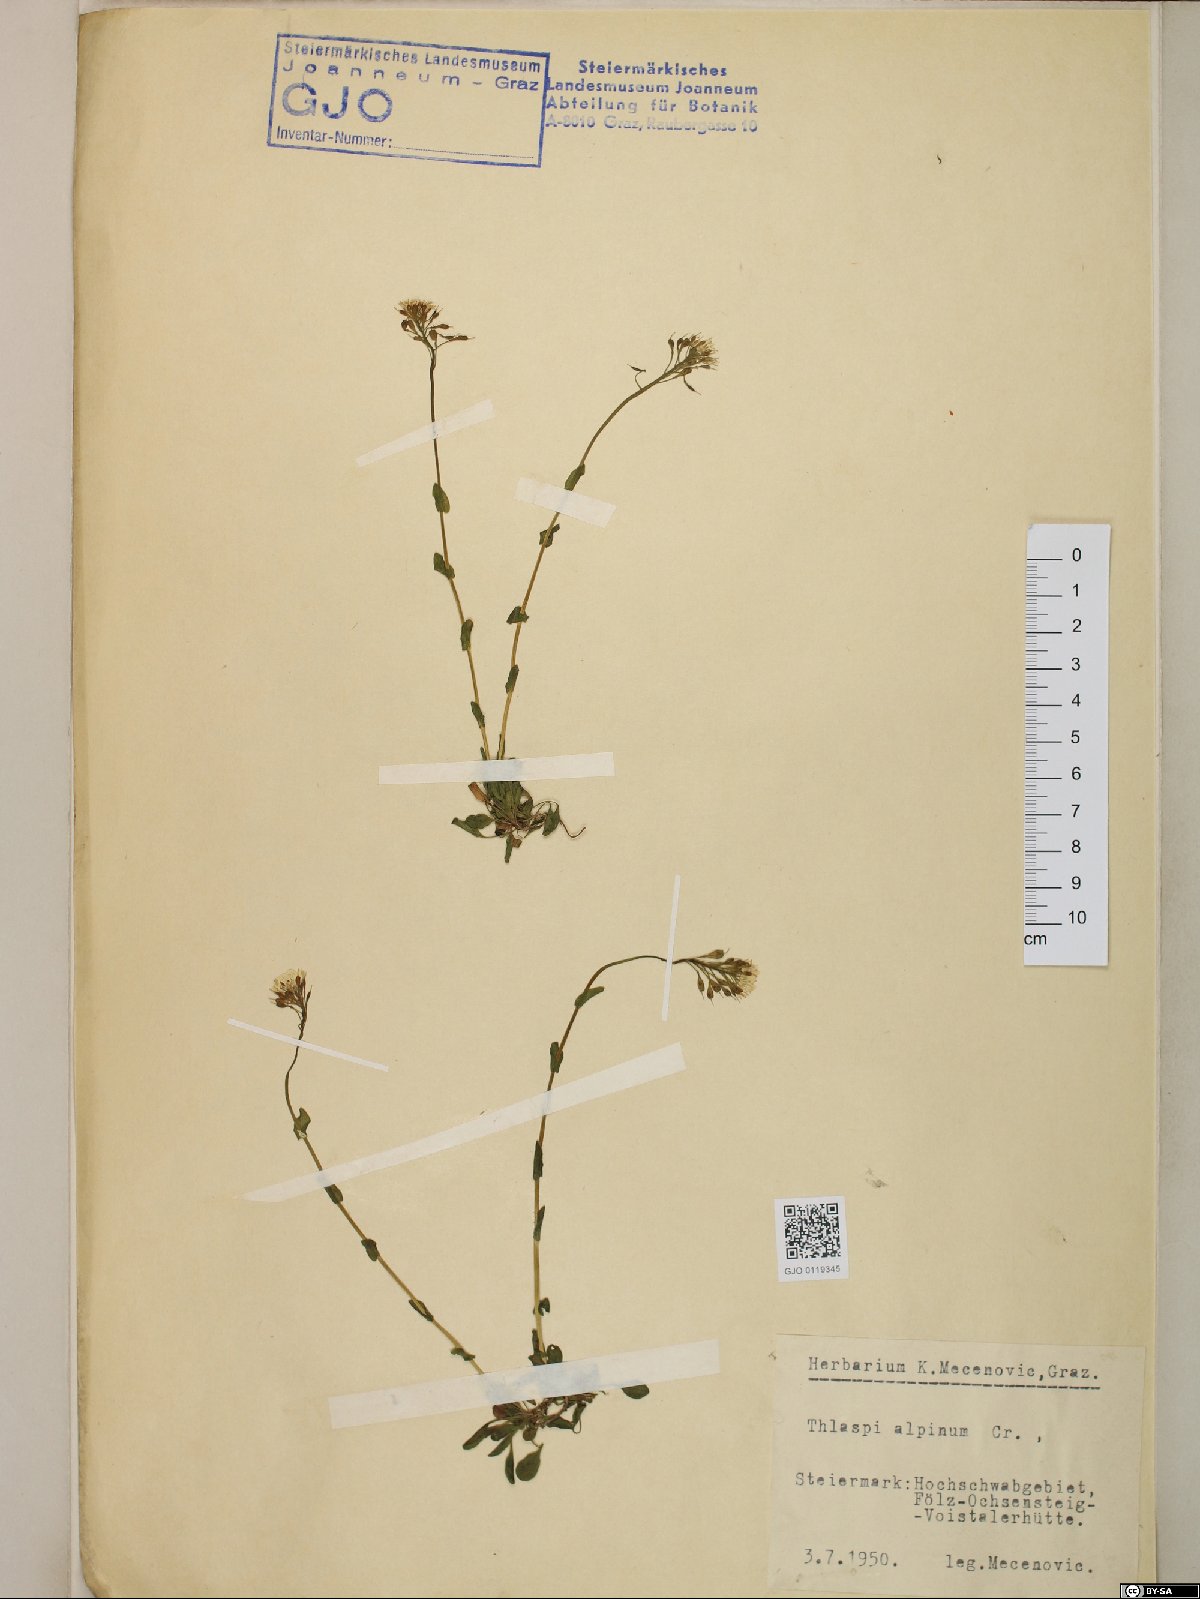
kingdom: Plantae
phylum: Tracheophyta
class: Magnoliopsida
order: Brassicales
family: Brassicaceae
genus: Noccaea
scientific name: Noccaea alpestris
